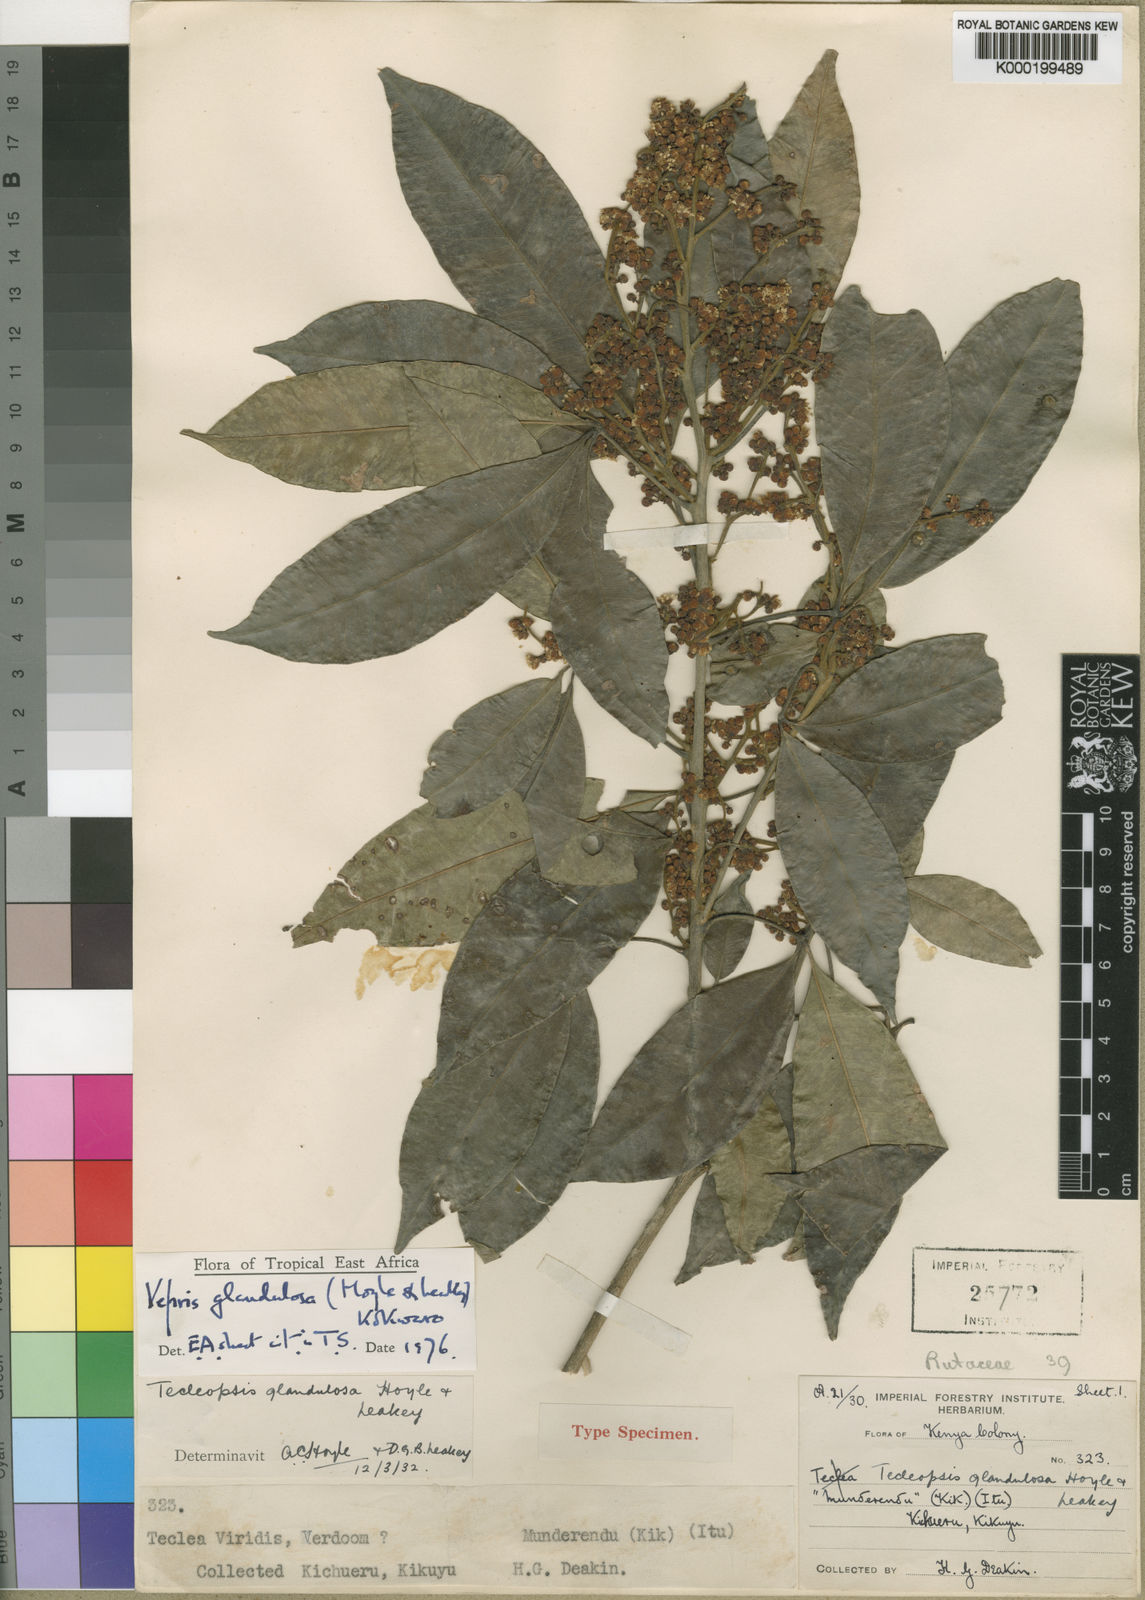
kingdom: Plantae
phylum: Tracheophyta
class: Magnoliopsida
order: Sapindales
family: Rutaceae
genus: Vepris
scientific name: Vepris glandulosa
